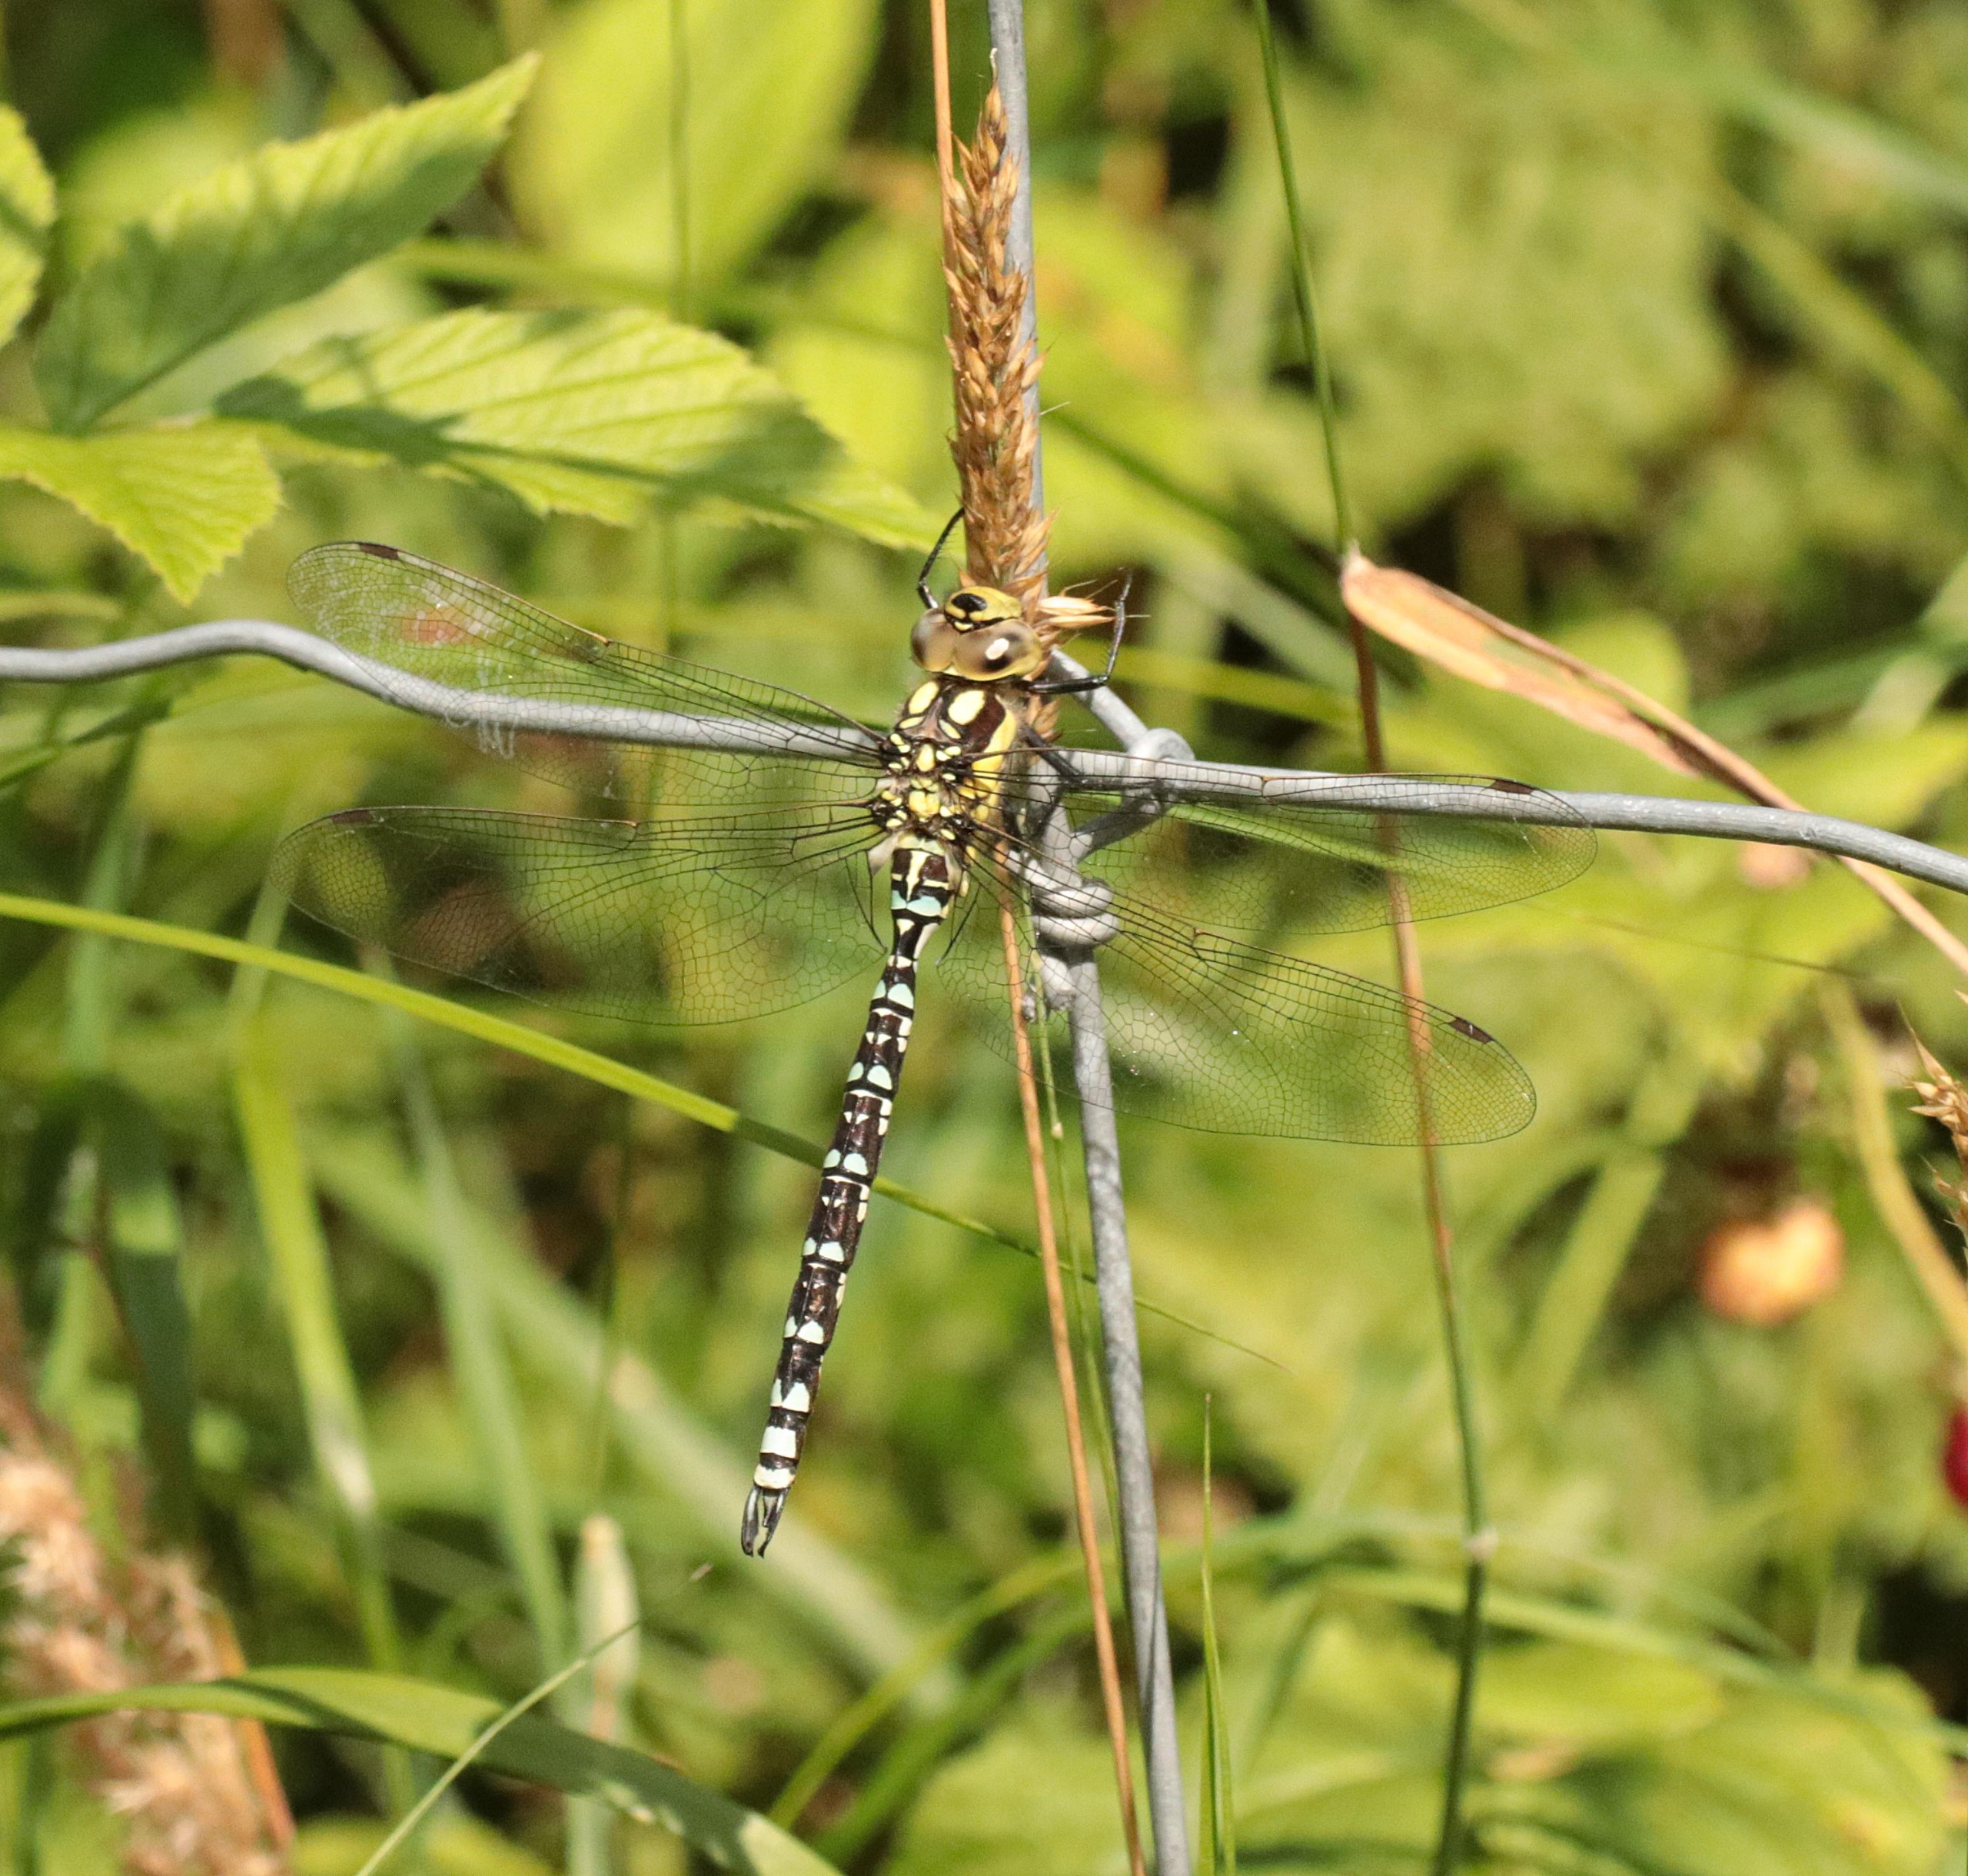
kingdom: Animalia
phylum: Arthropoda
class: Insecta
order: Odonata
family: Aeshnidae
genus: Aeshna
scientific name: Aeshna cyanea
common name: Blå mosaikguldsmed
